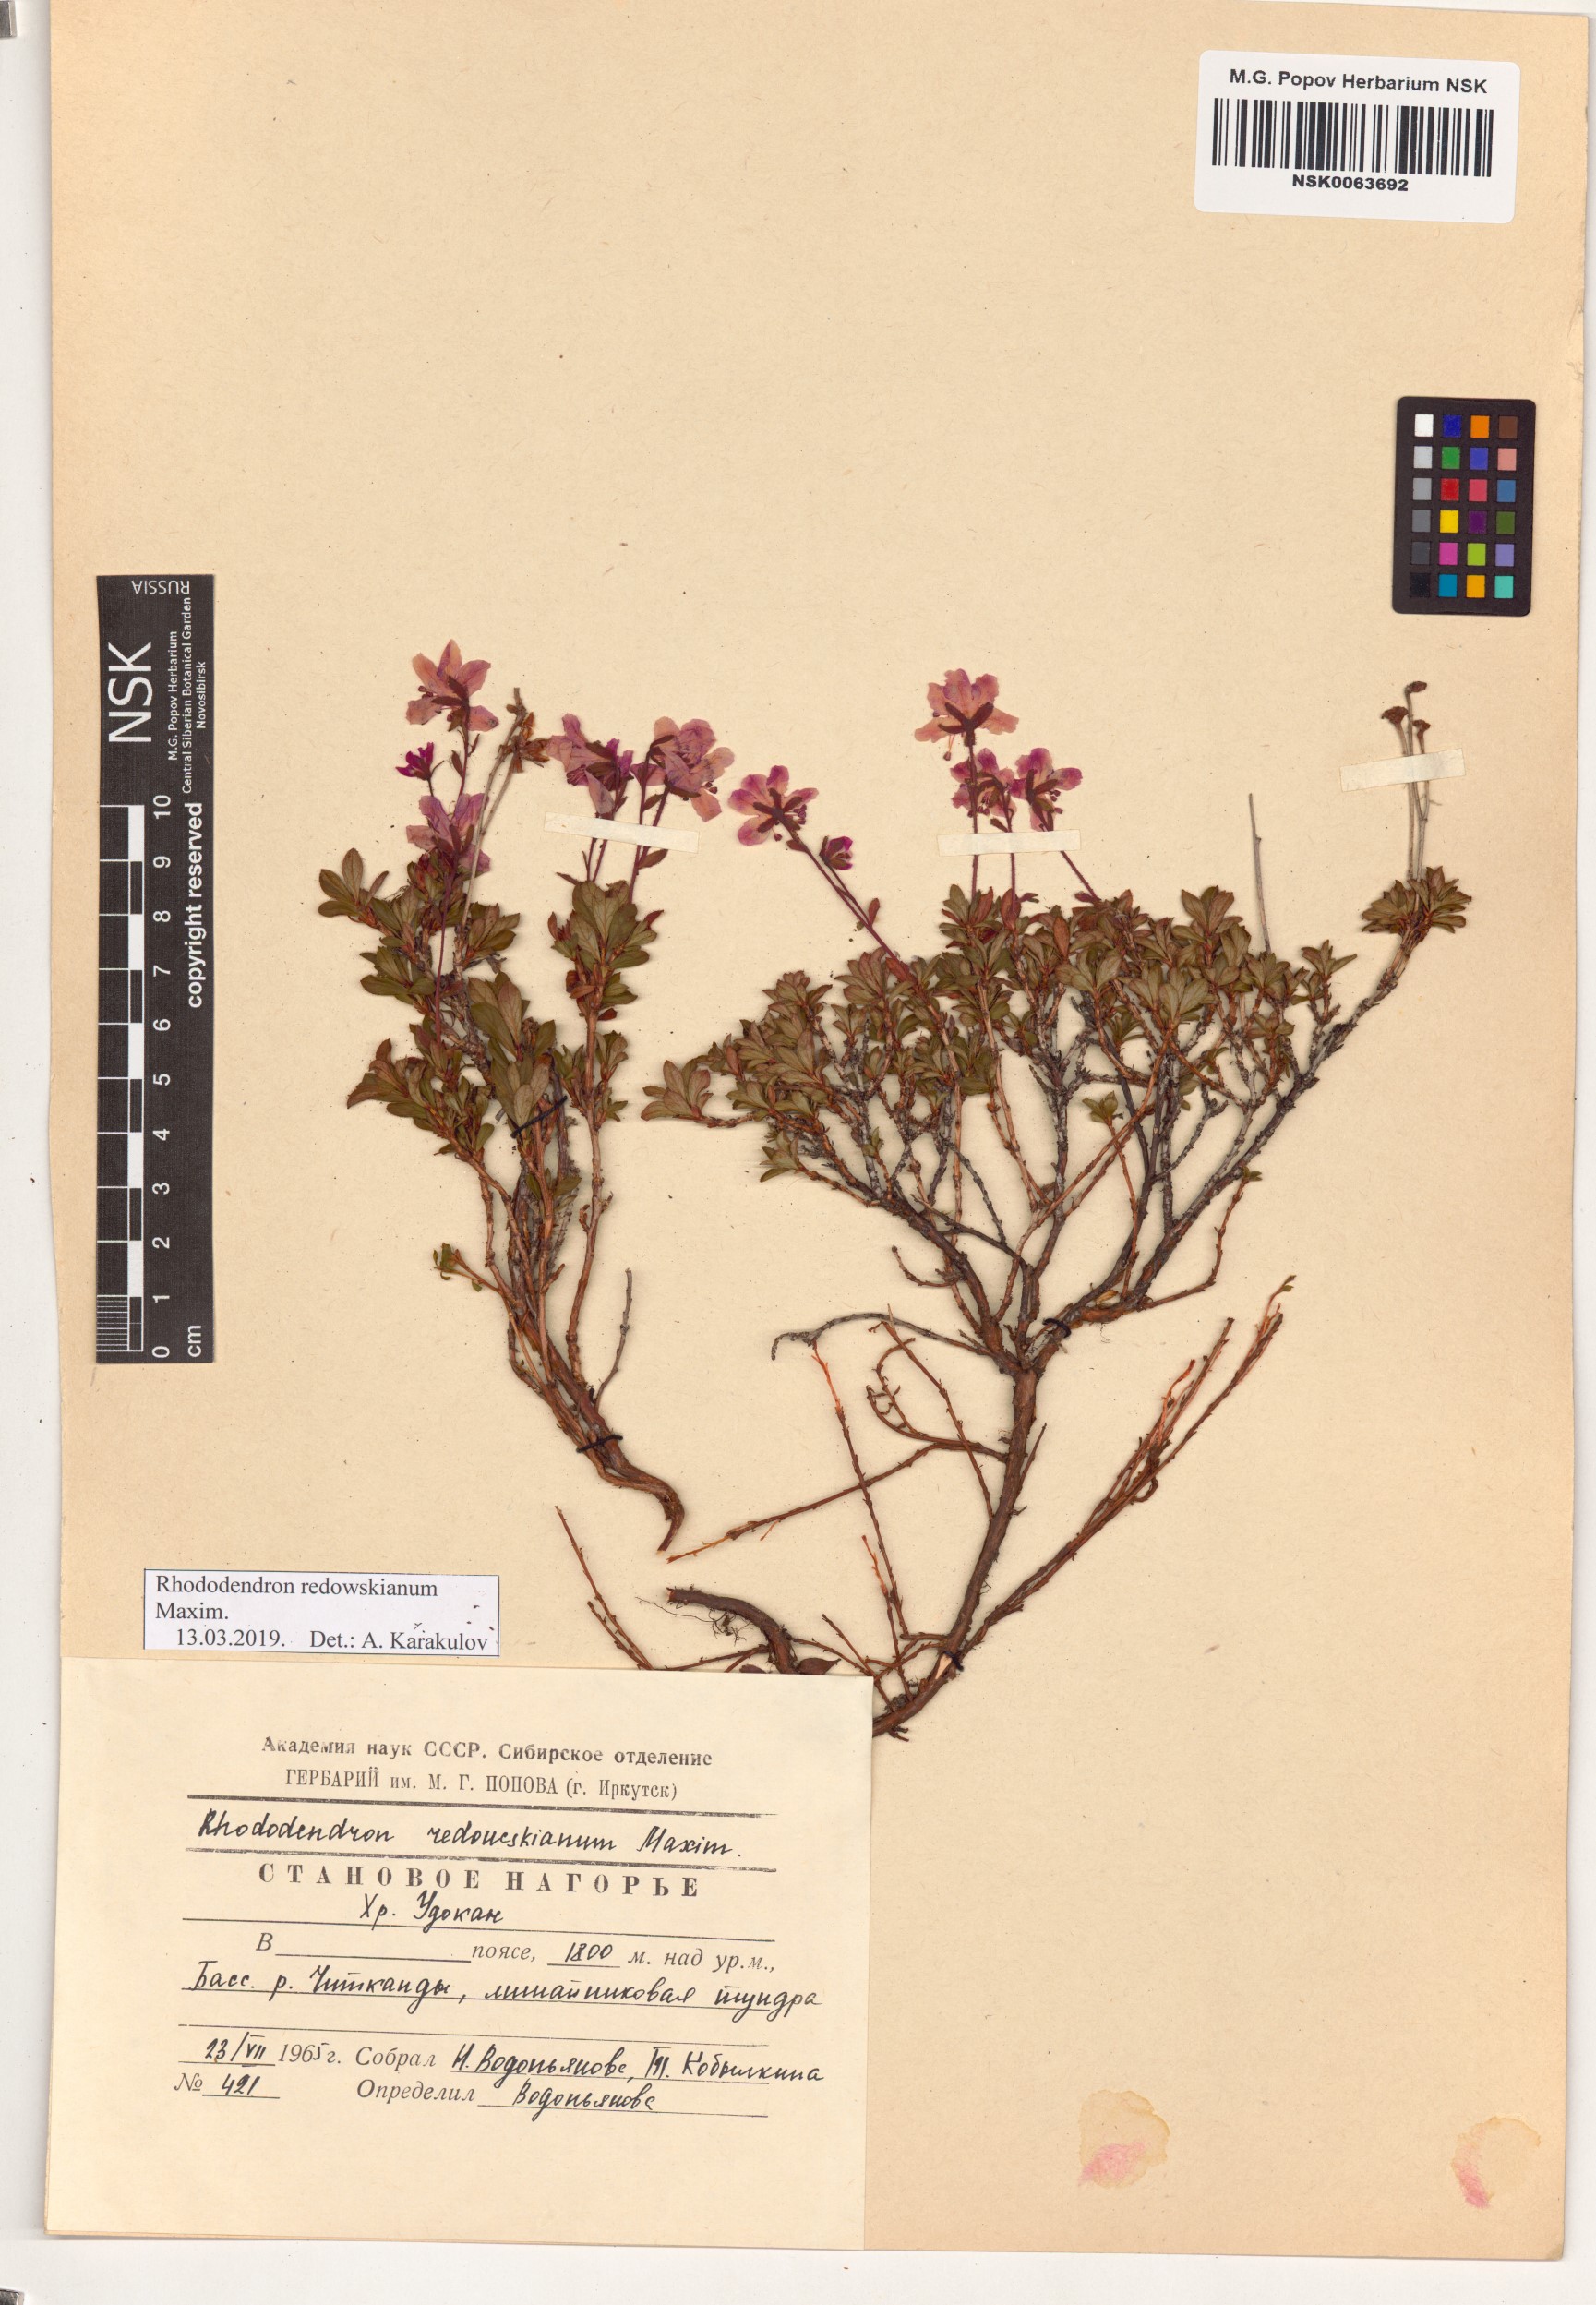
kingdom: Plantae
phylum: Tracheophyta
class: Magnoliopsida
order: Ericales
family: Ericaceae
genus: Rhododendron
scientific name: Rhododendron redowskianum
